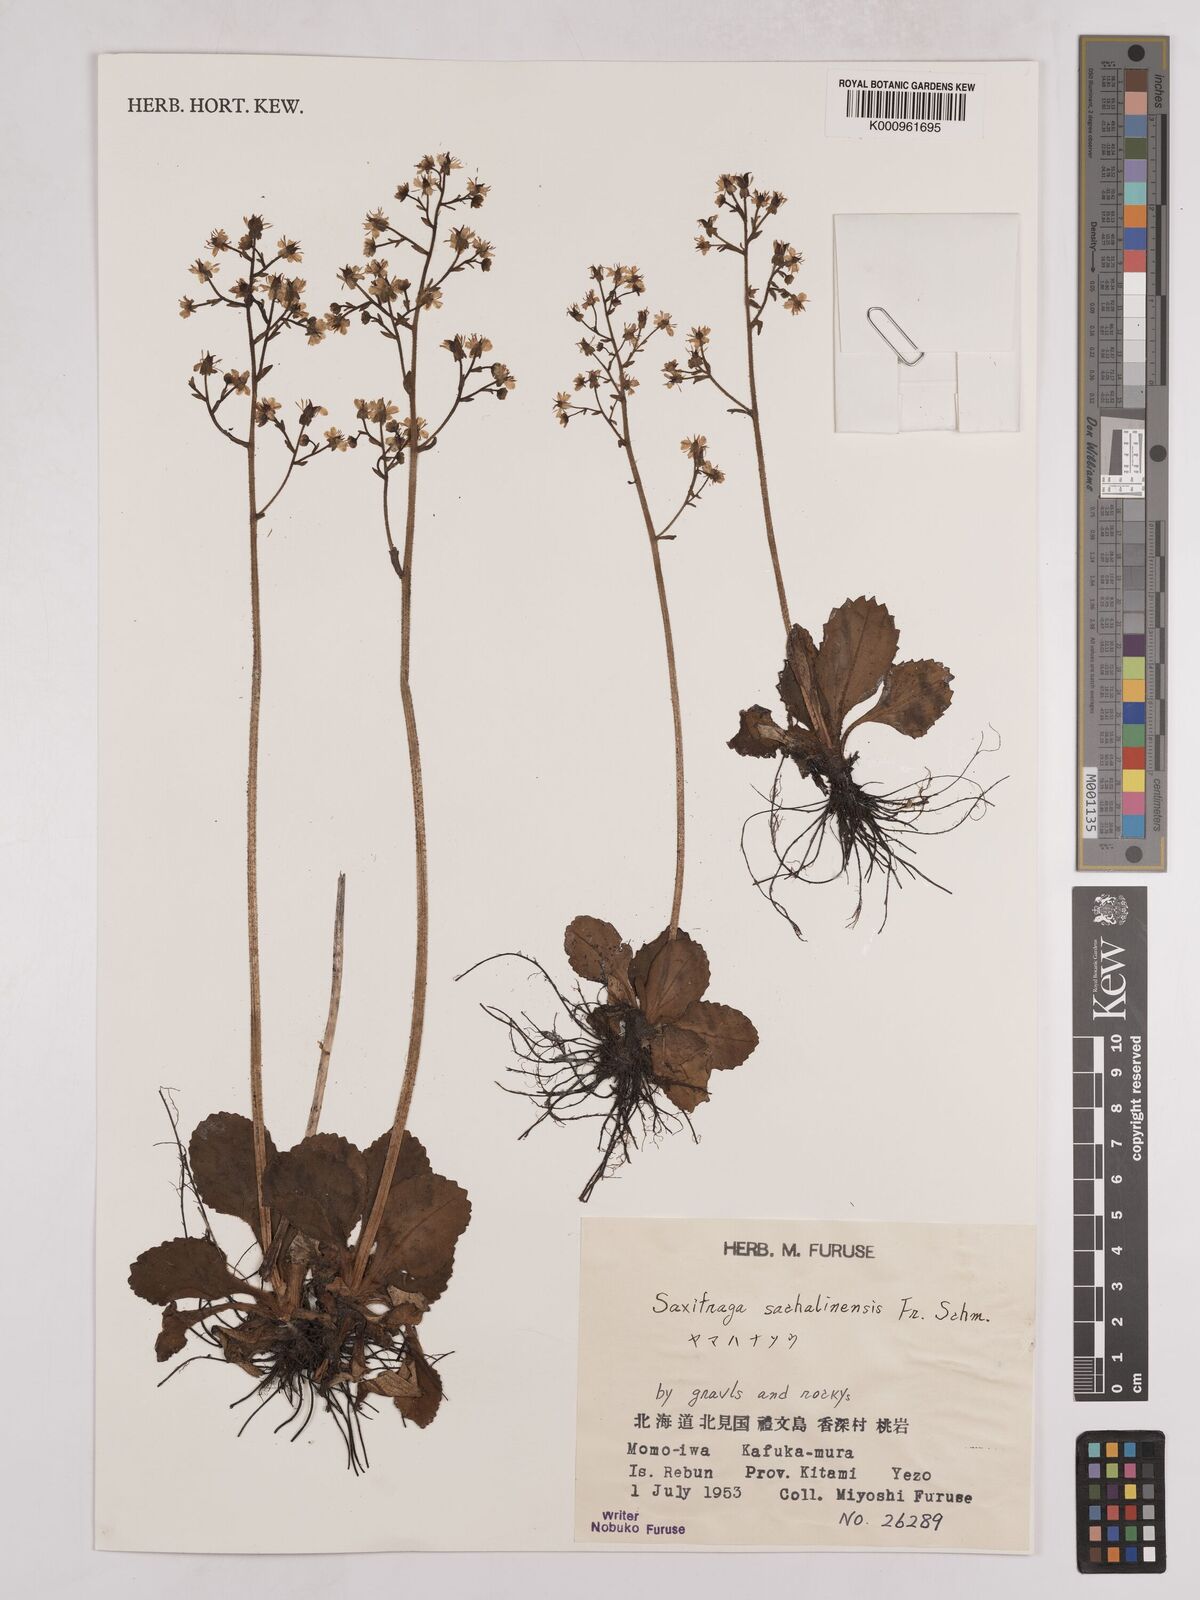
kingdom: Plantae
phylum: Tracheophyta
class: Magnoliopsida
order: Saxifragales
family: Saxifragaceae
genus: Micranthes
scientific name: Micranthes sachalinensis
